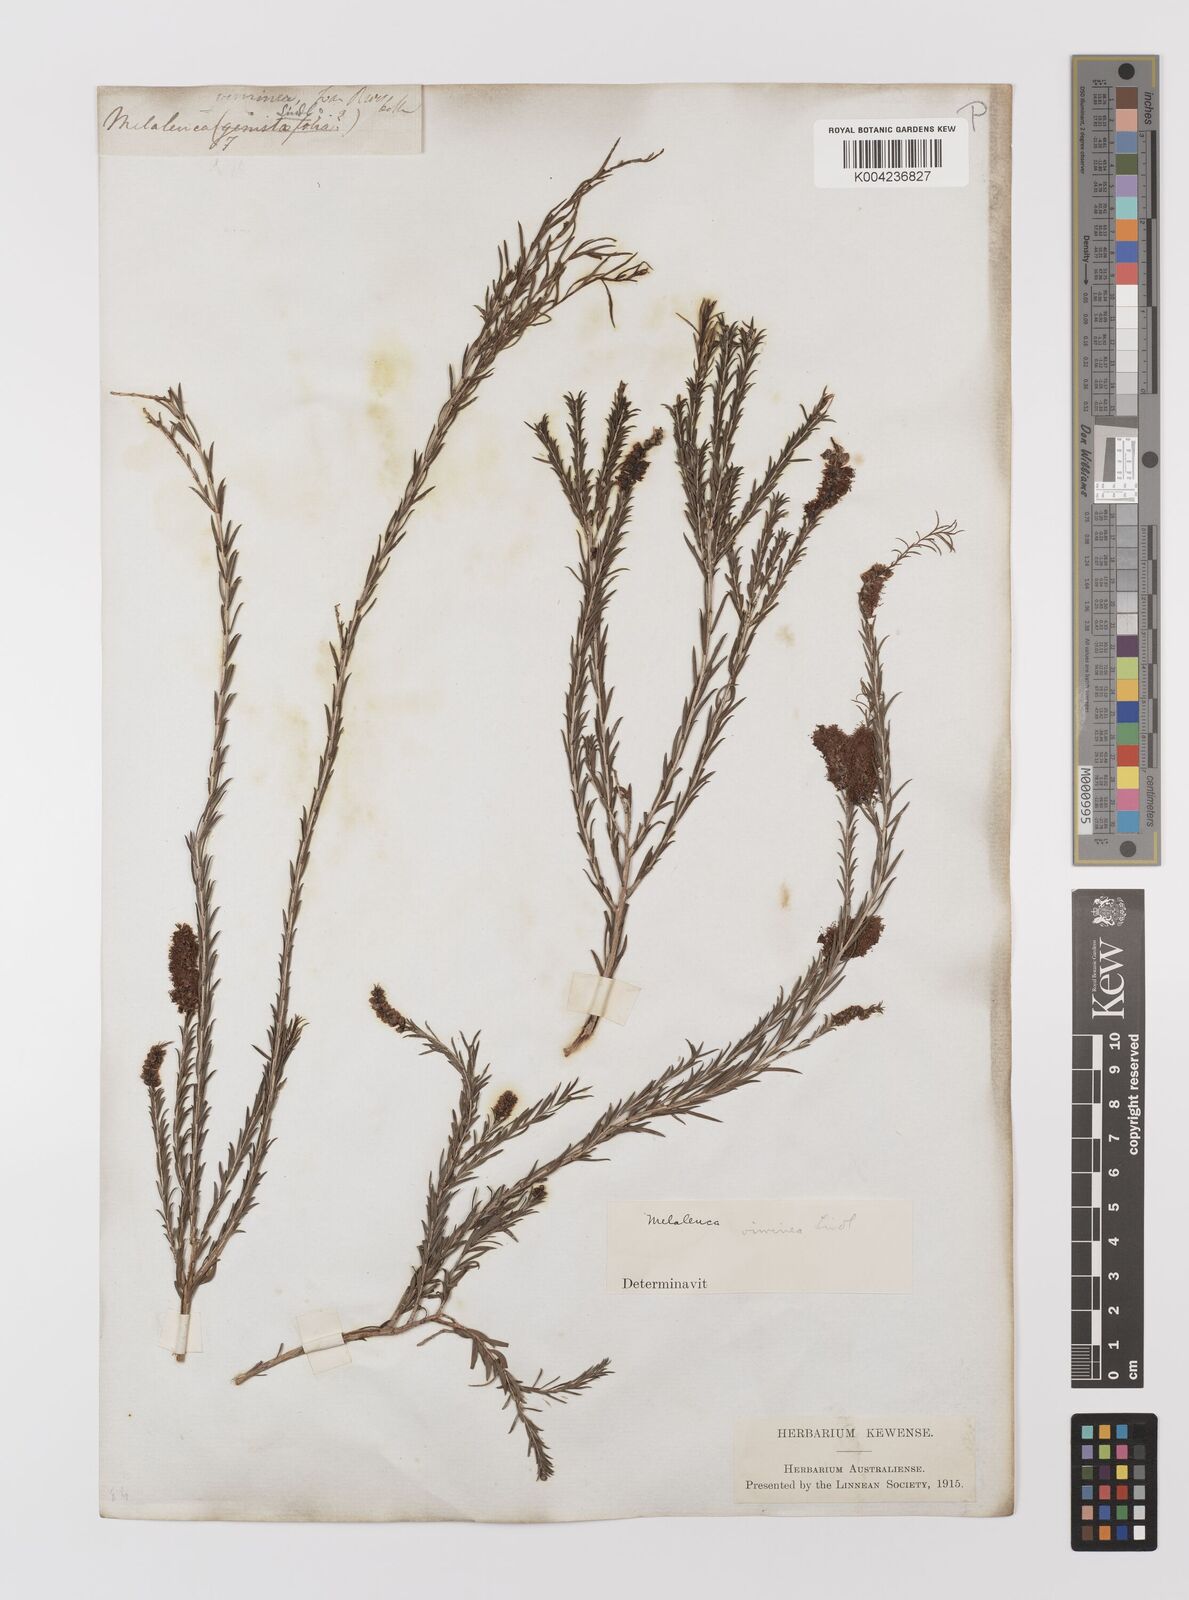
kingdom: Plantae
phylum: Tracheophyta
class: Magnoliopsida
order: Myrtales
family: Myrtaceae
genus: Melaleuca
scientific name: Melaleuca viminea
